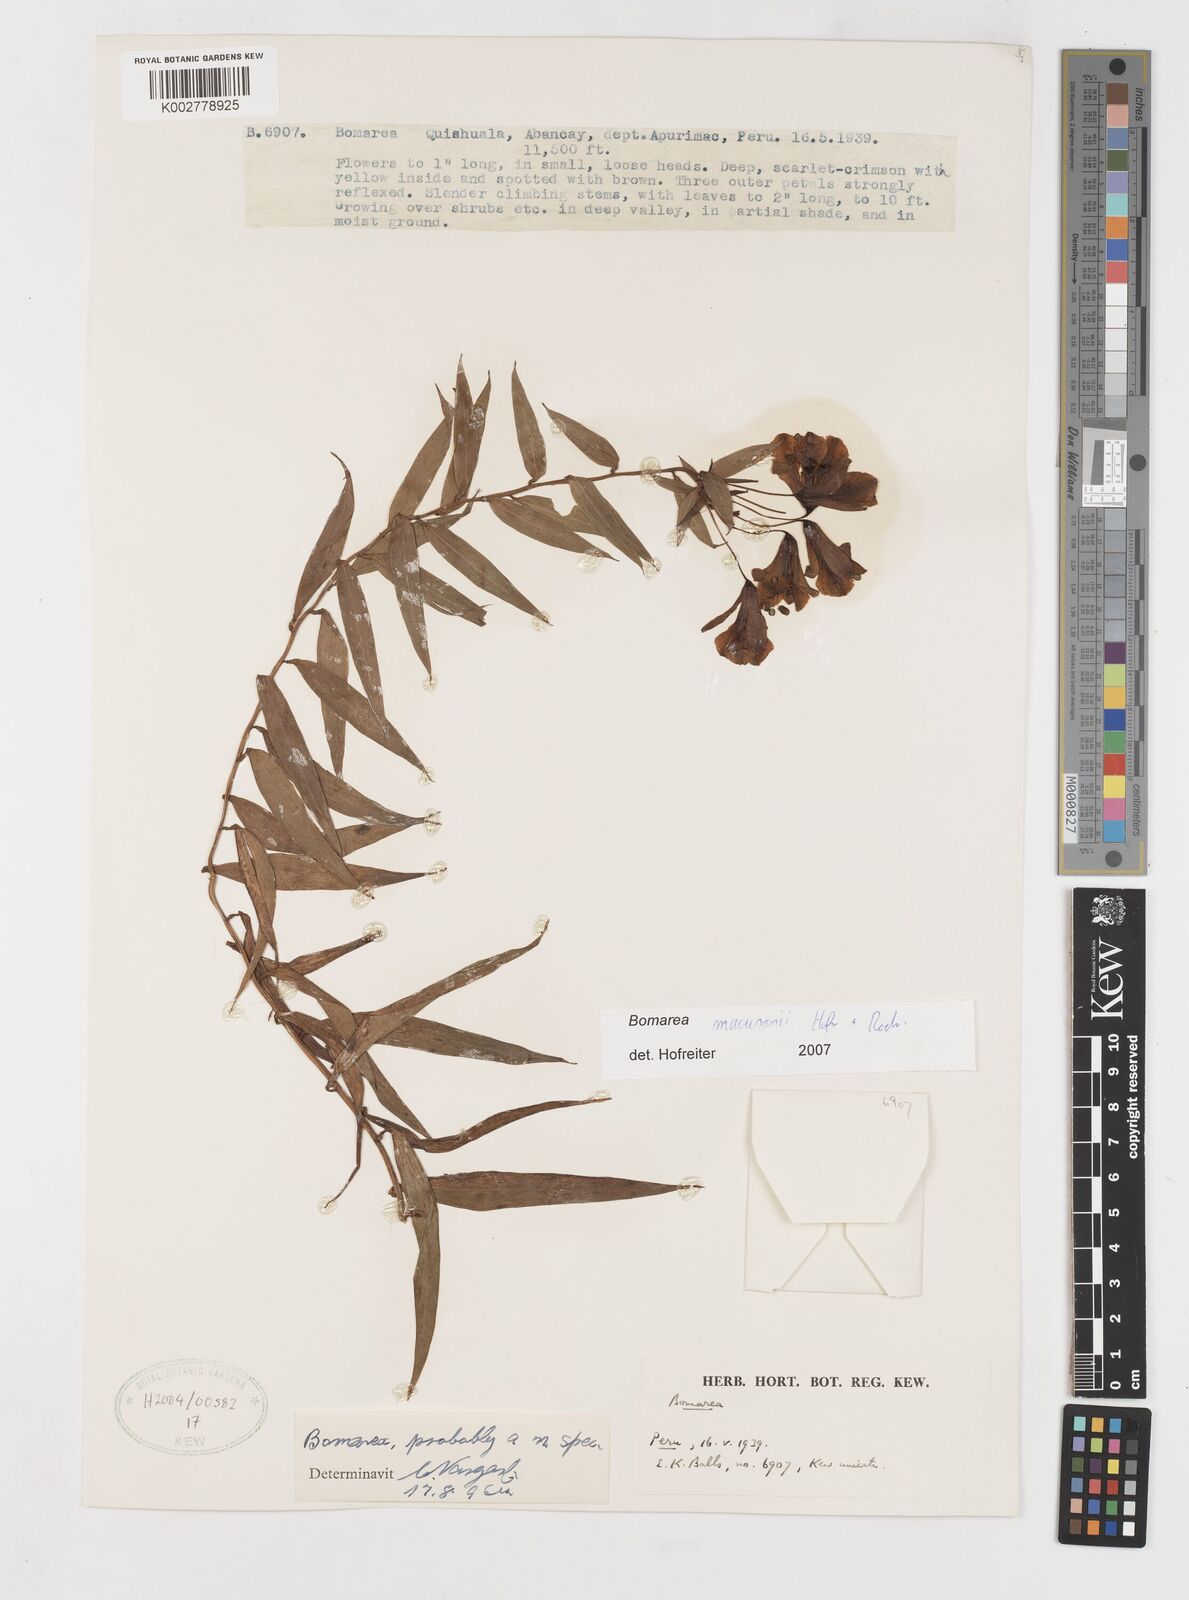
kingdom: Plantae
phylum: Tracheophyta
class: Liliopsida
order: Liliales
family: Alstroemeriaceae
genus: Bomarea
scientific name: Bomarea macusanii
